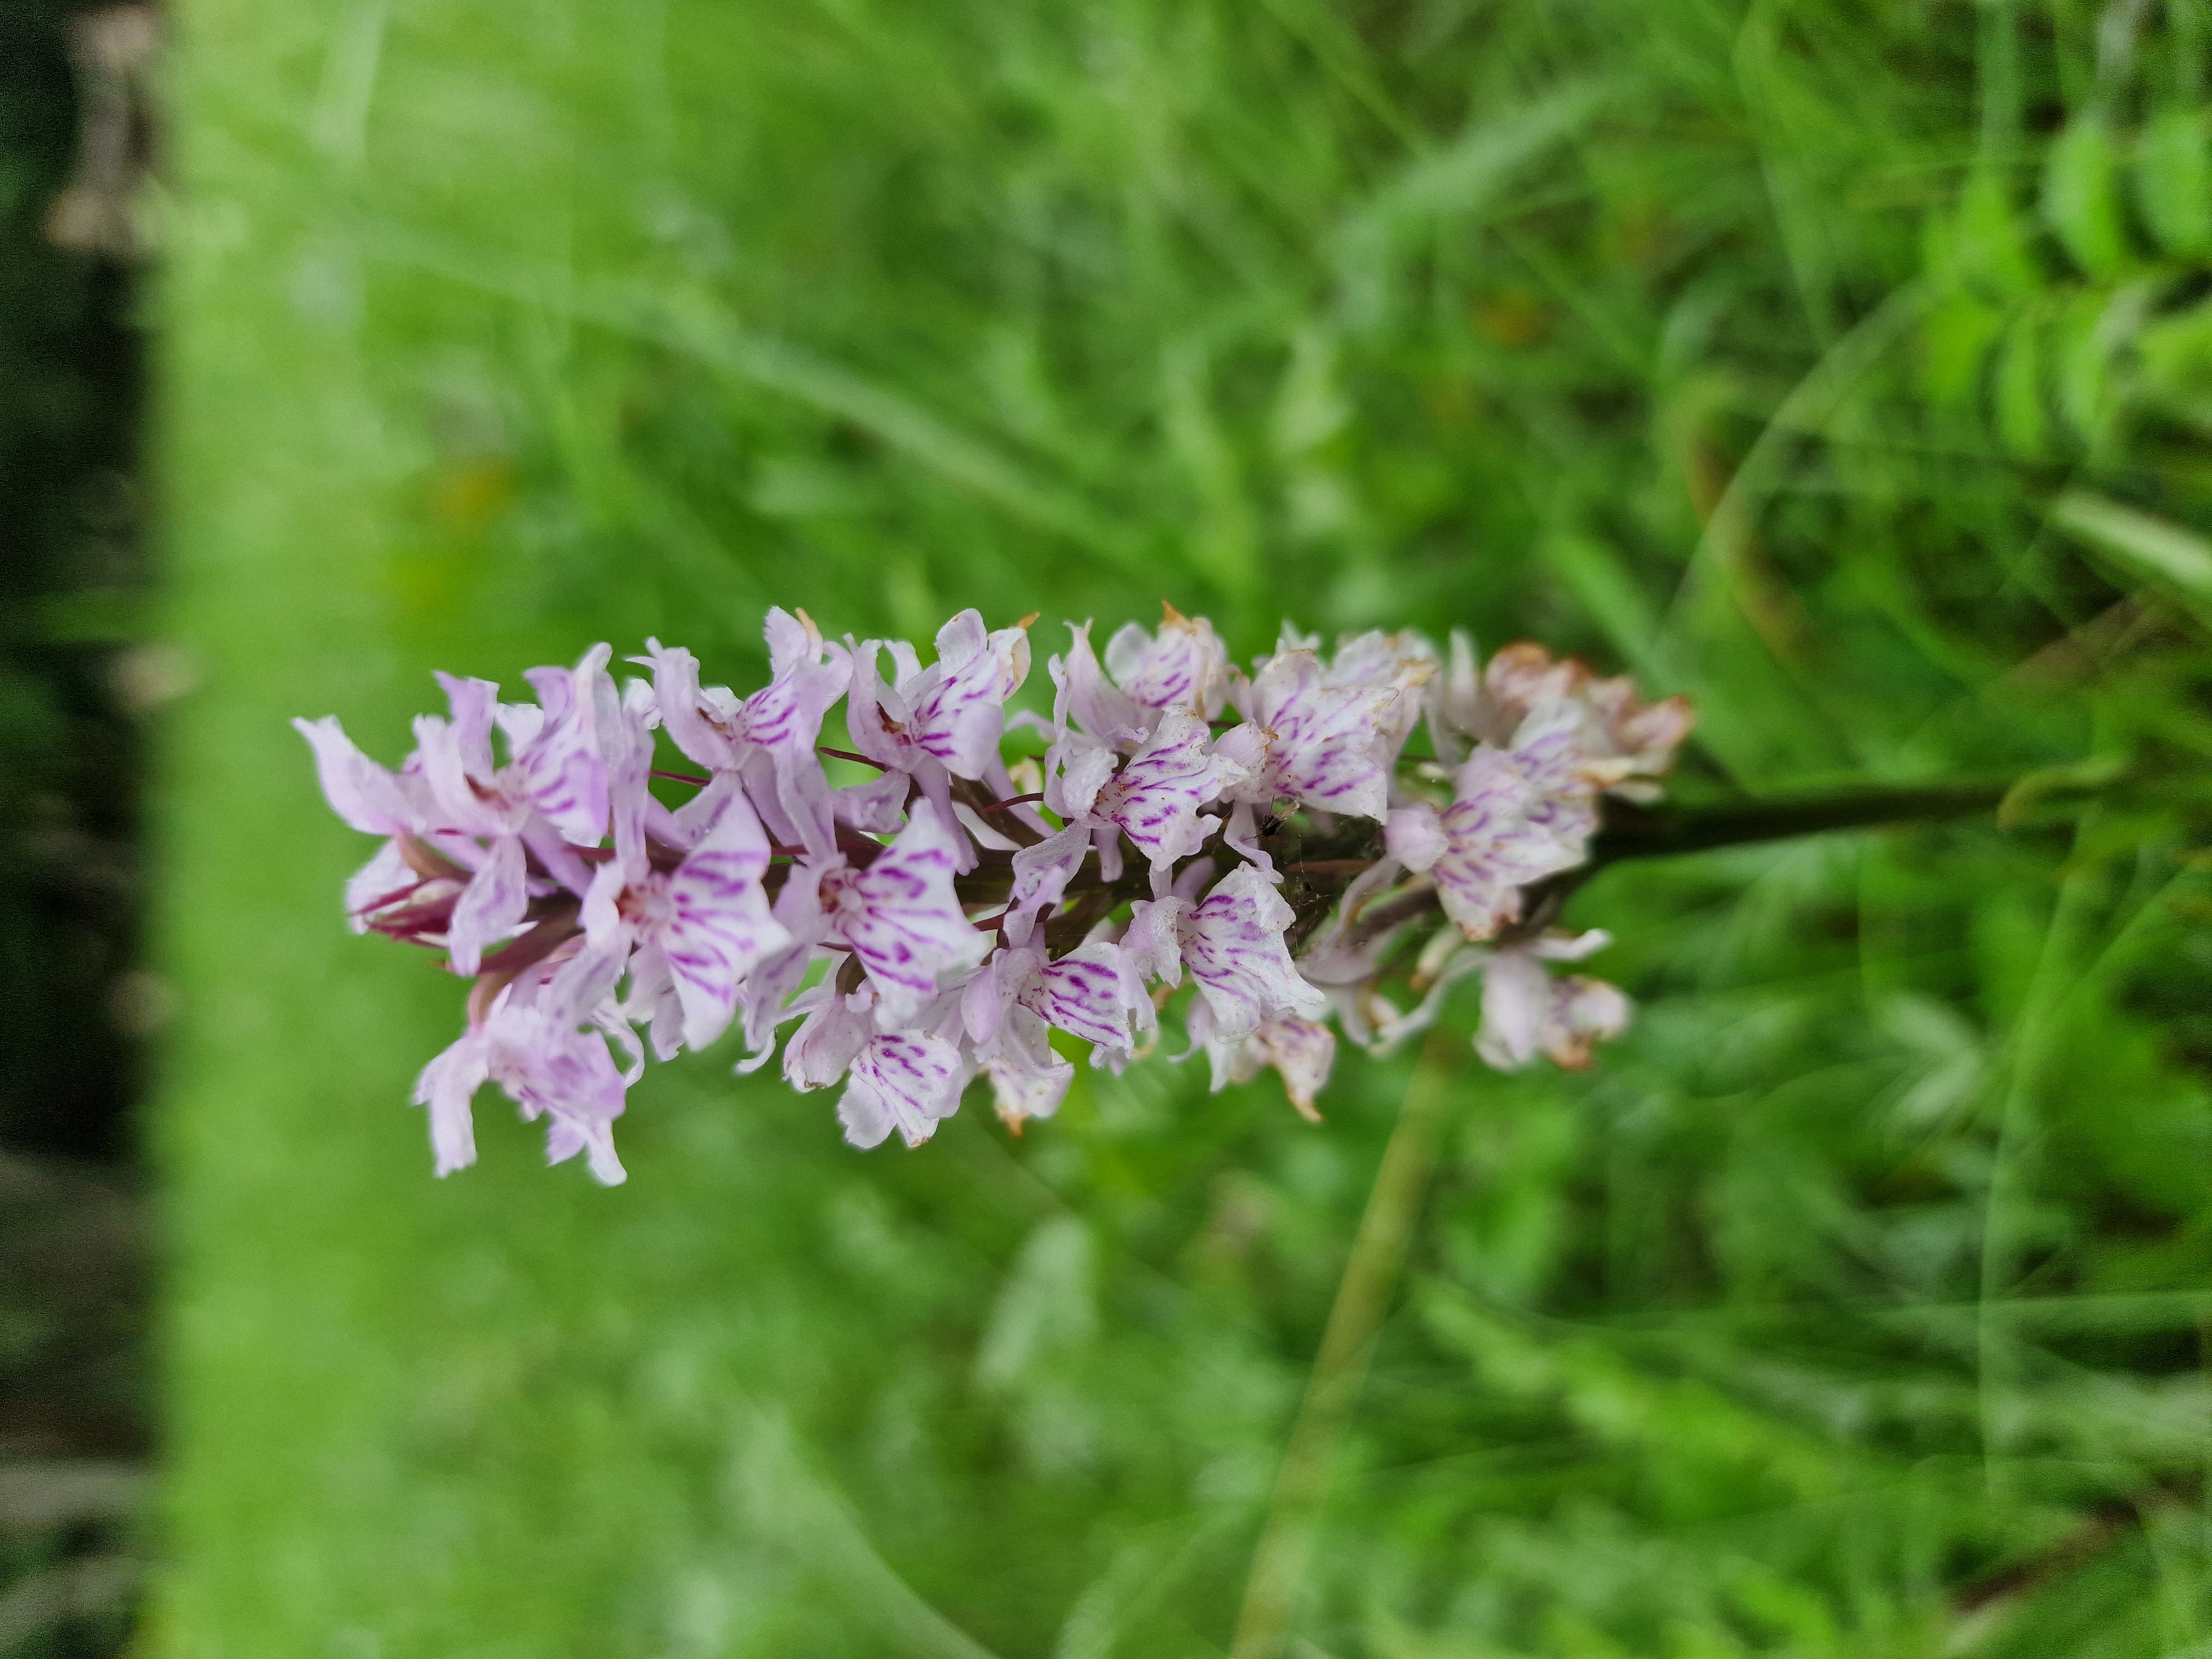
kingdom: Plantae
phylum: Tracheophyta
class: Liliopsida
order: Asparagales
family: Orchidaceae
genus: Dactylorhiza
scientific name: Dactylorhiza maculata
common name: Skov-gøgeurt
